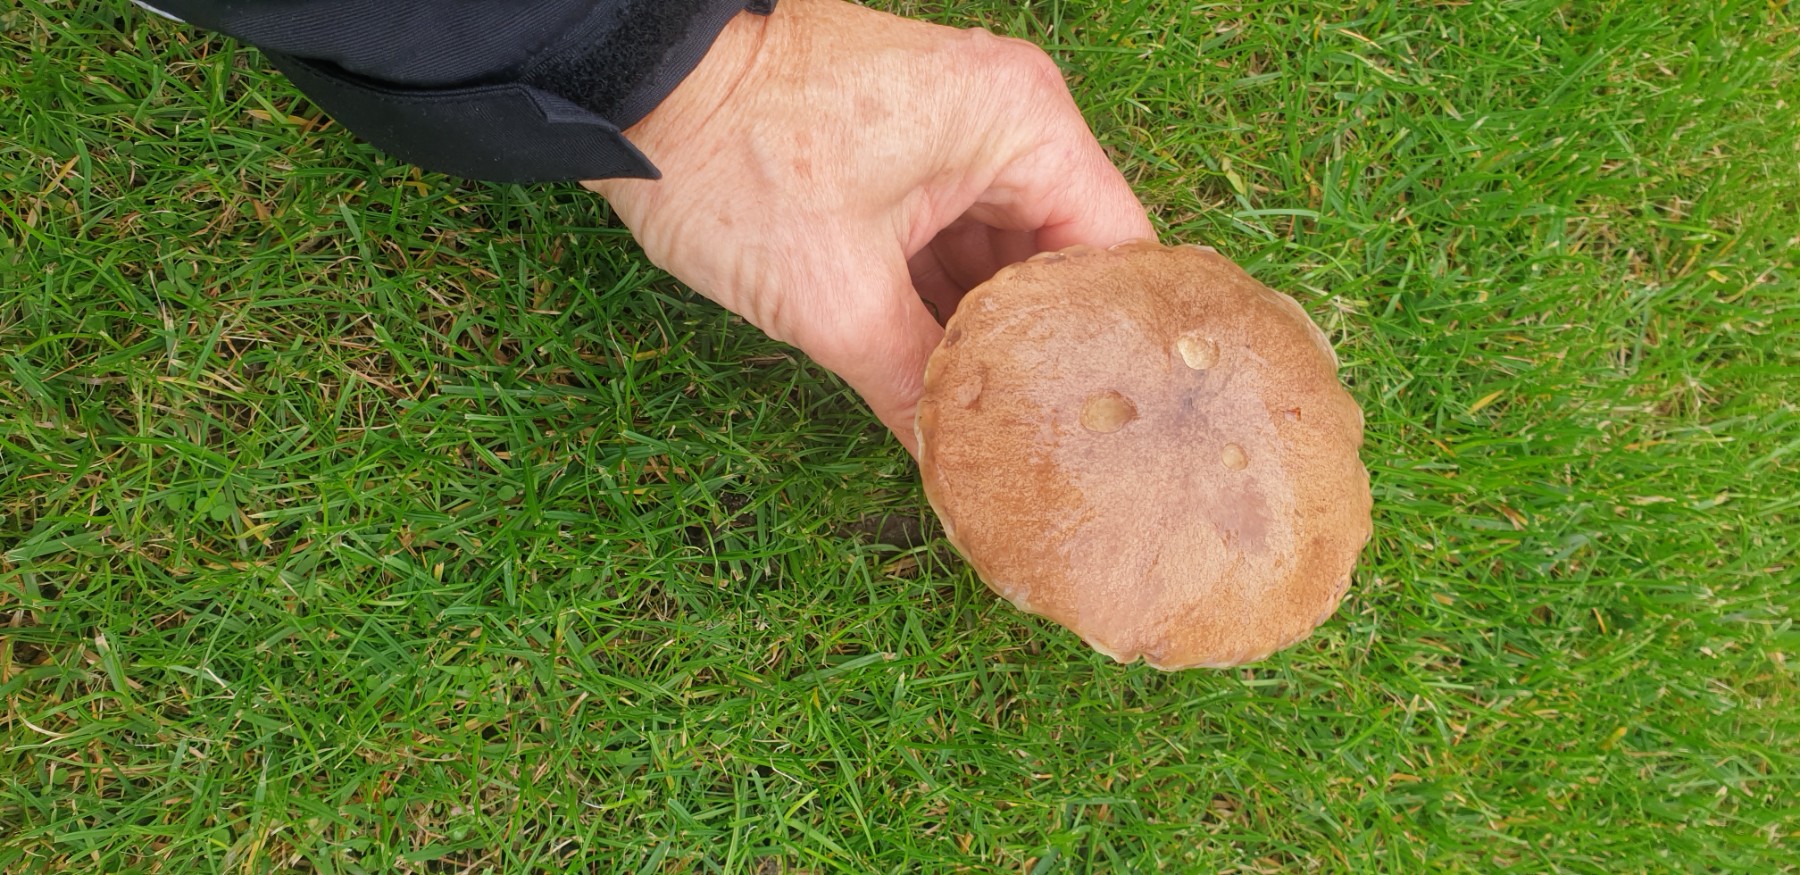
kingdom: Fungi
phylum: Basidiomycota
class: Agaricomycetes
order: Boletales
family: Suillaceae
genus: Suillus
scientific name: Suillus collinitus
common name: rosafodet slimrørhat
